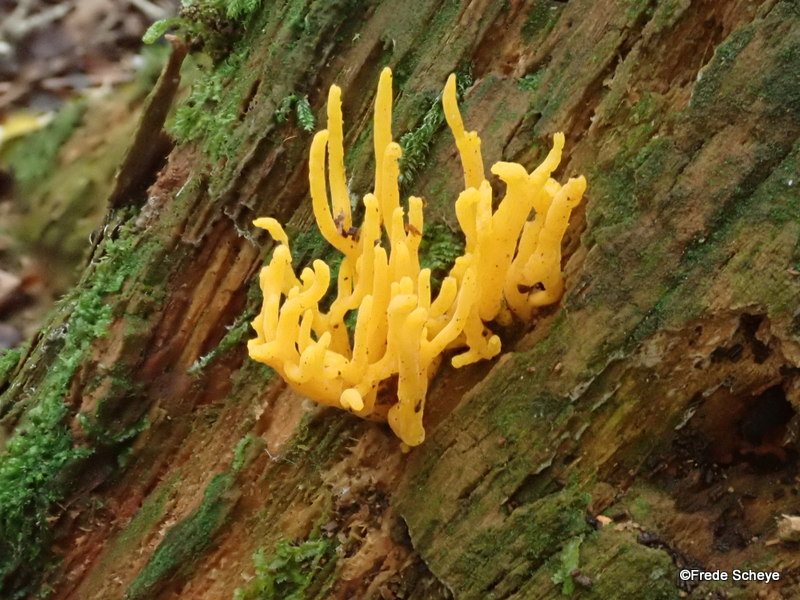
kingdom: Fungi
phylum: Basidiomycota
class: Dacrymycetes
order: Dacrymycetales
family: Dacrymycetaceae
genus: Calocera
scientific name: Calocera viscosa
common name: almindelig guldgaffel
